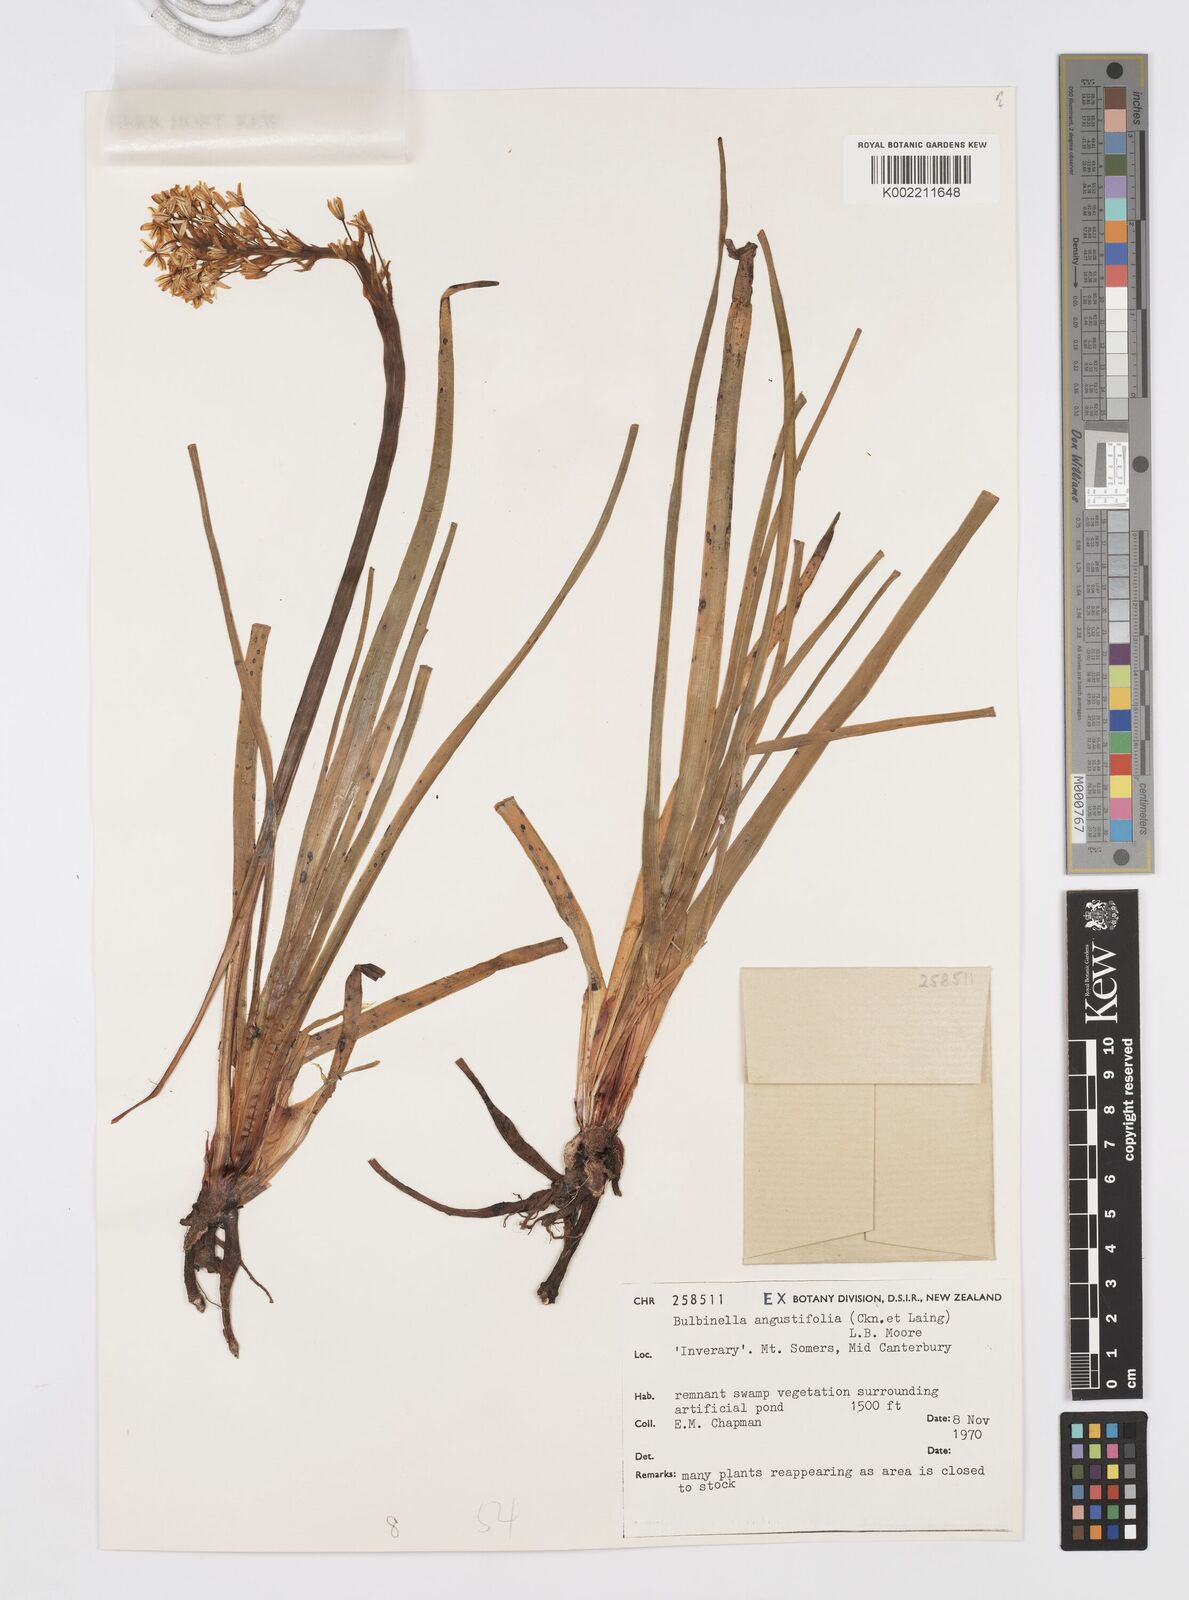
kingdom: Plantae
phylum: Tracheophyta
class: Liliopsida
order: Asparagales
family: Asphodelaceae
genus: Bulbinella
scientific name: Bulbinella angustifolia
